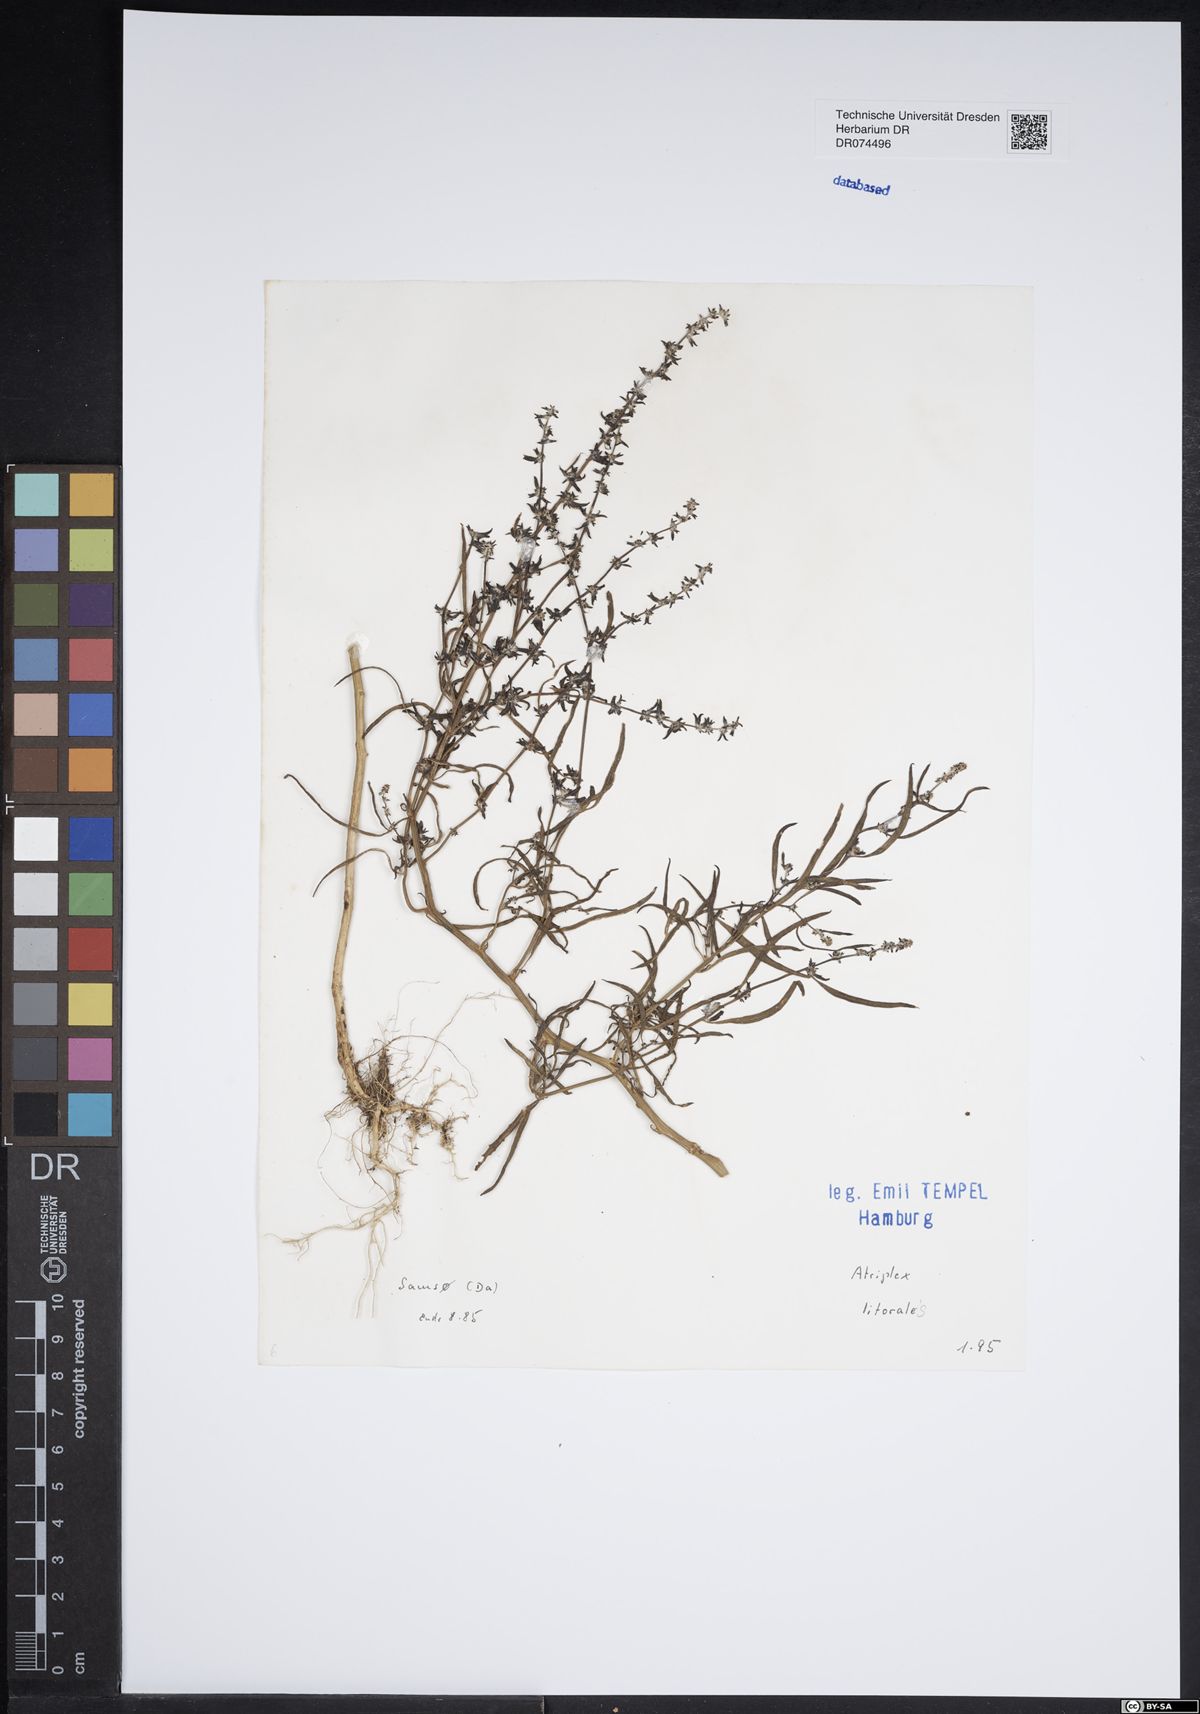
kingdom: Plantae
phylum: Tracheophyta
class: Magnoliopsida
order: Caryophyllales
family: Amaranthaceae
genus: Atriplex
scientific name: Atriplex littoralis
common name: Grass-leaved orache
